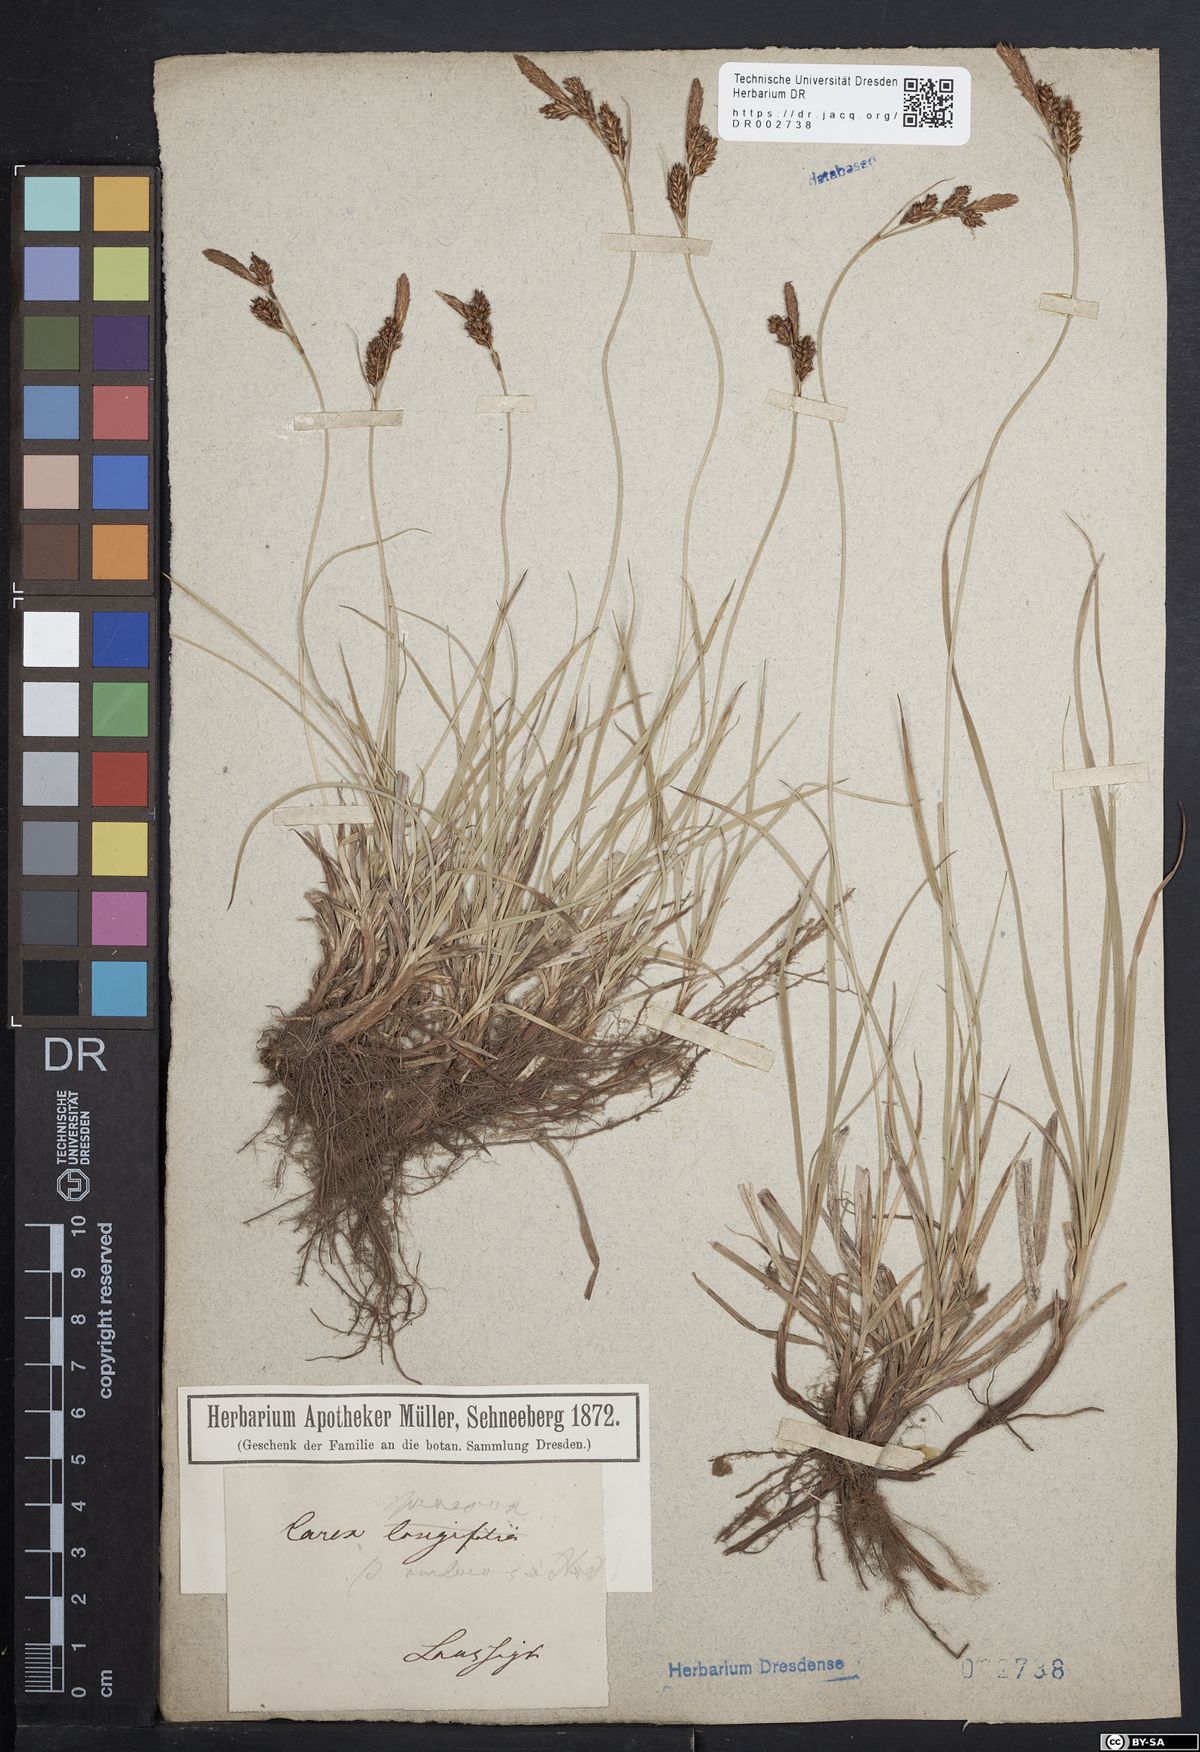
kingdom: Plantae
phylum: Tracheophyta
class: Liliopsida
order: Poales
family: Cyperaceae
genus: Carex
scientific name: Carex caryophyllea
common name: Spring sedge
